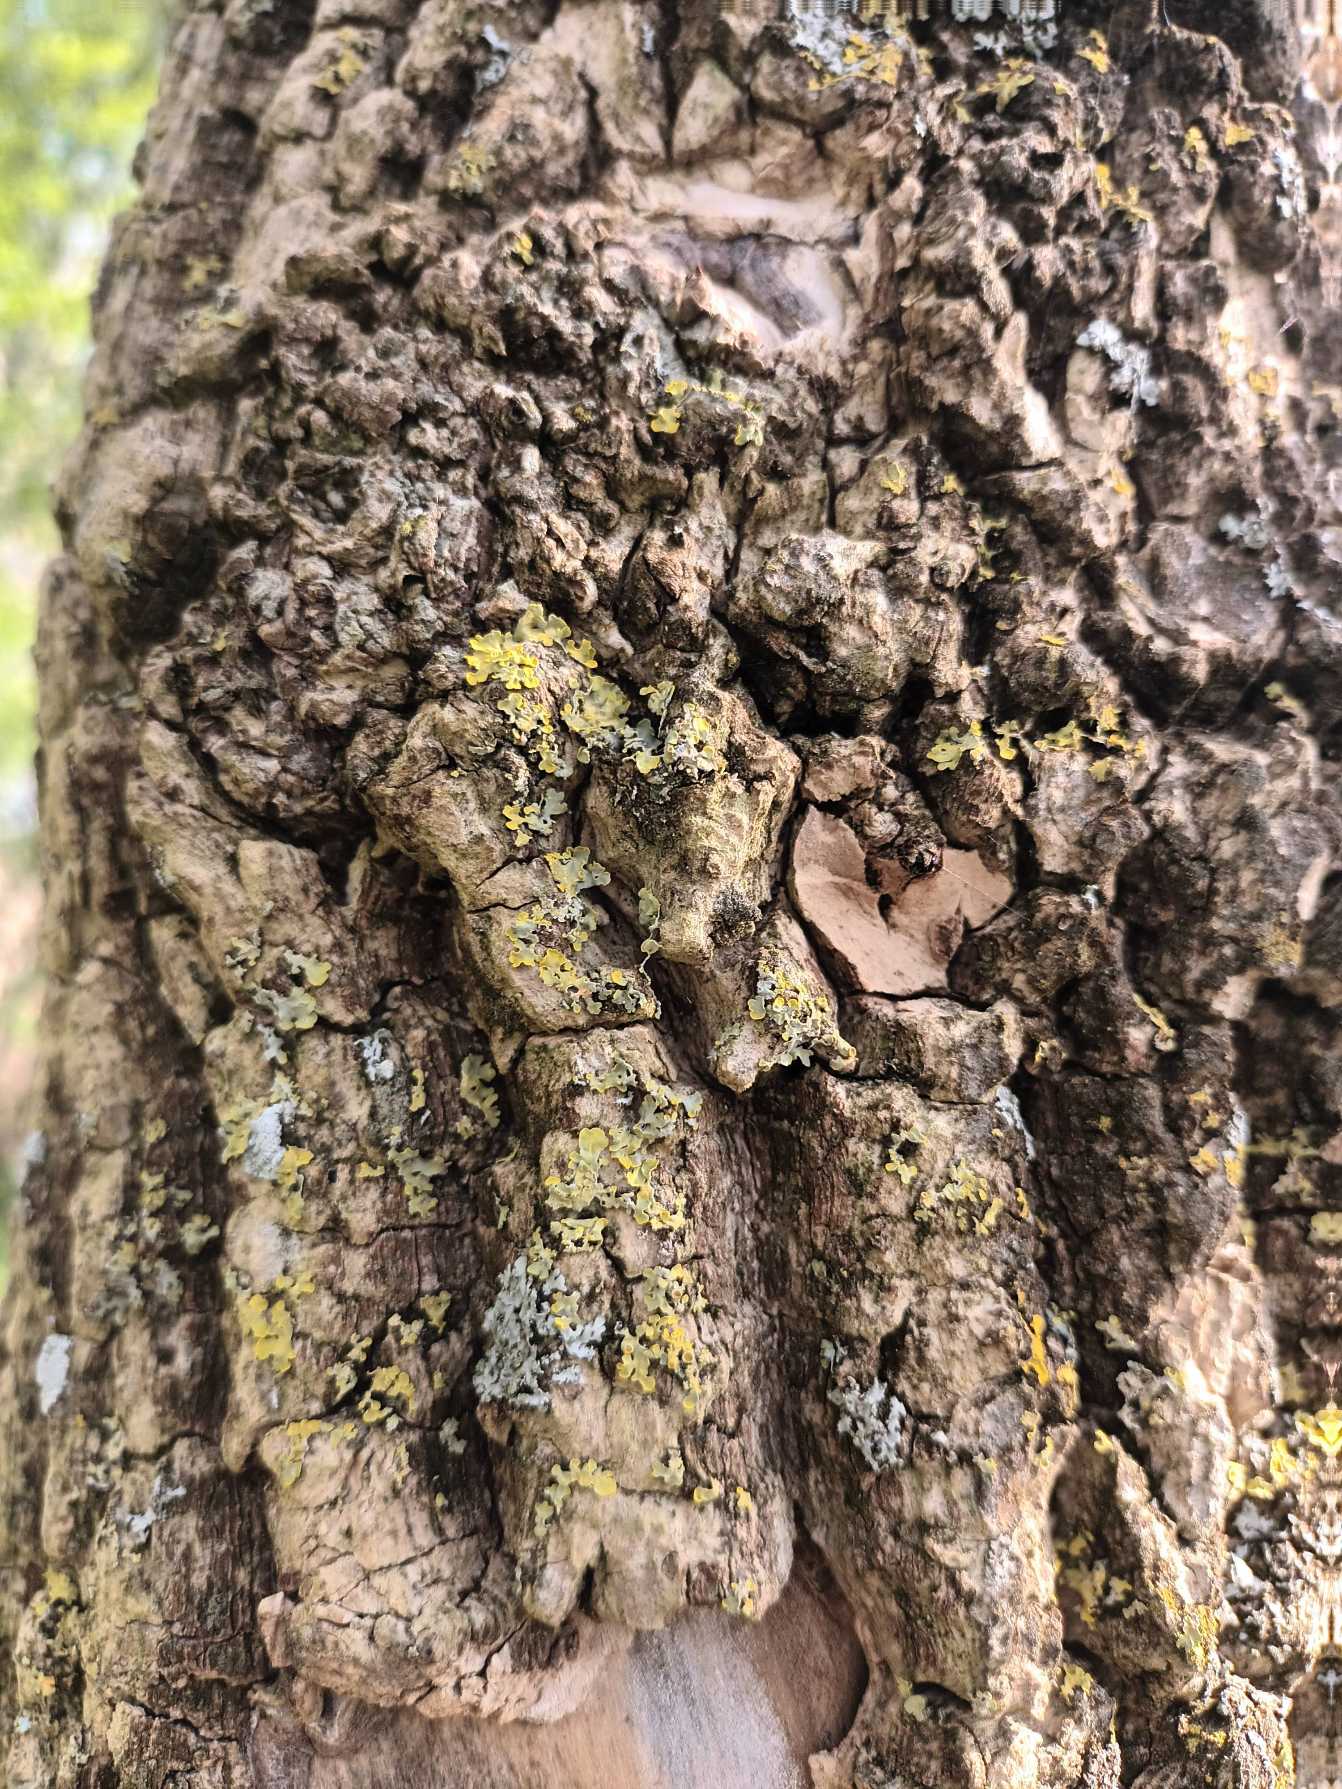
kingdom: Fungi
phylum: Ascomycota
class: Lecanoromycetes
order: Teloschistales
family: Teloschistaceae
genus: Xanthoria
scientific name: Xanthoria parietina
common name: Almindelig væggelav
